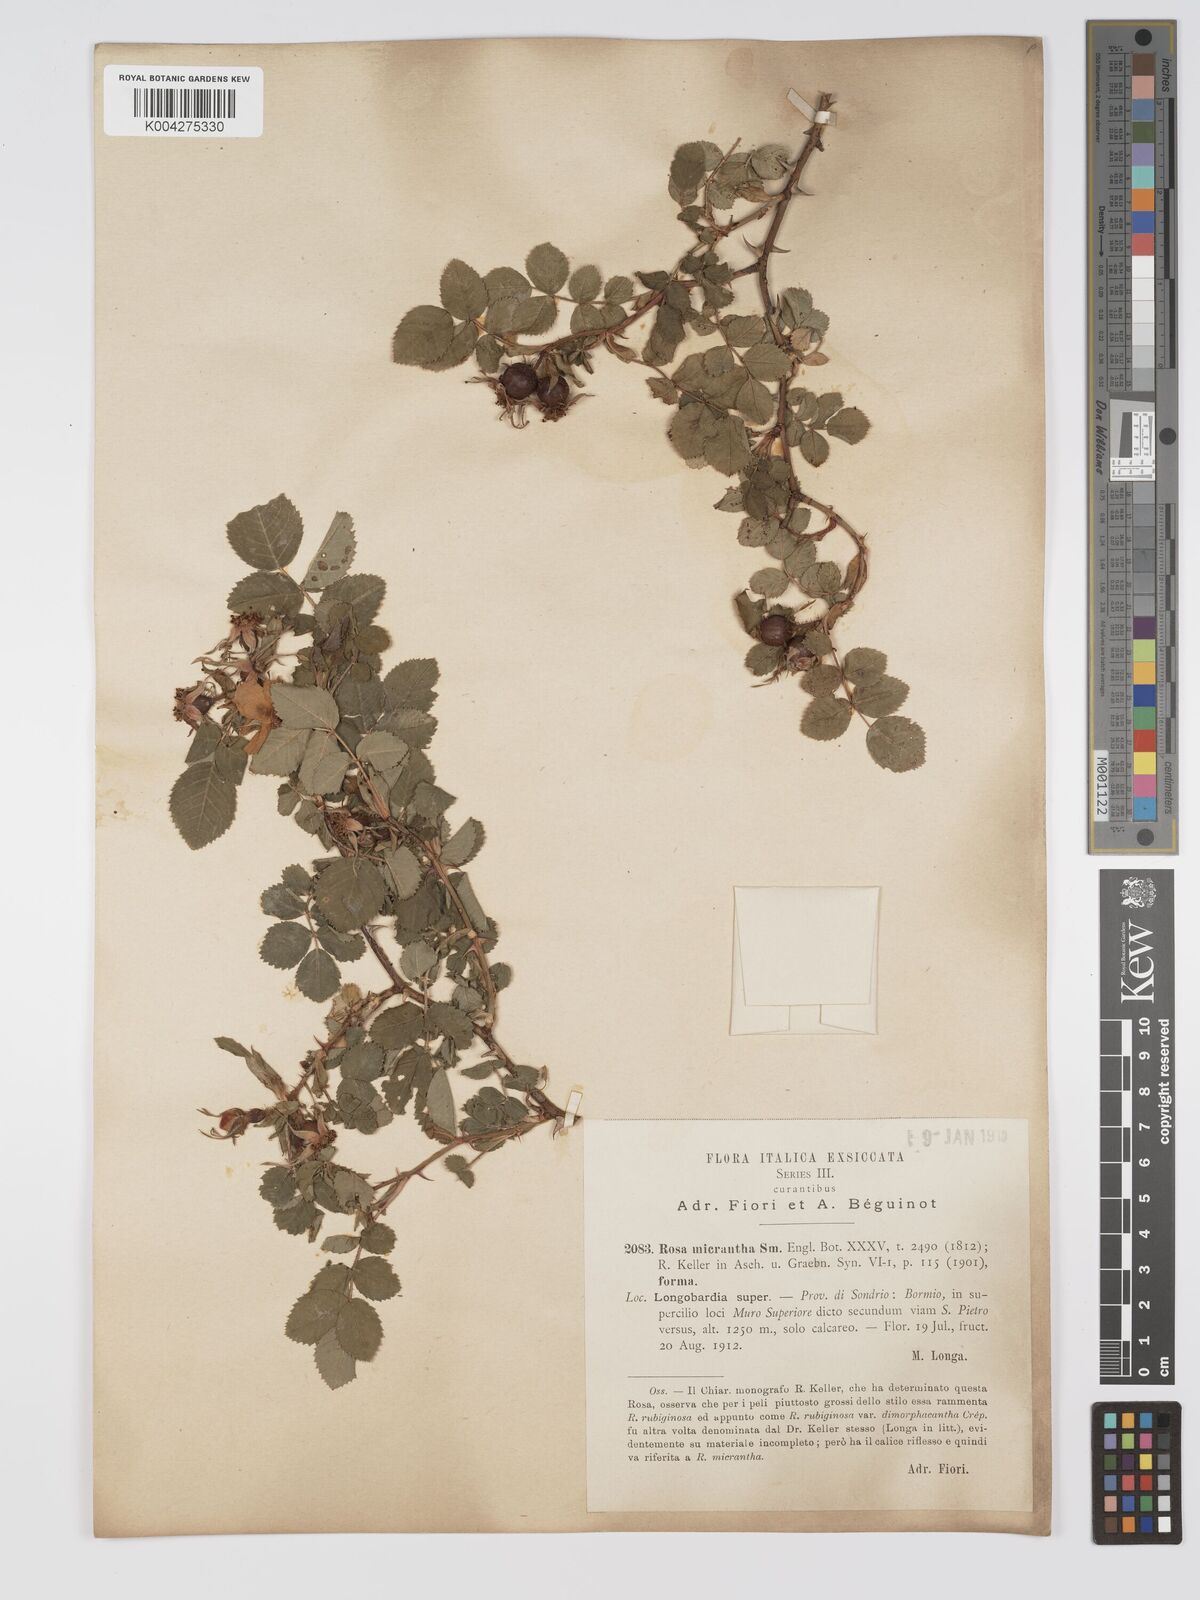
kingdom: Plantae
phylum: Tracheophyta
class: Magnoliopsida
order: Rosales
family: Rosaceae
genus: Rosa
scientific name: Rosa
